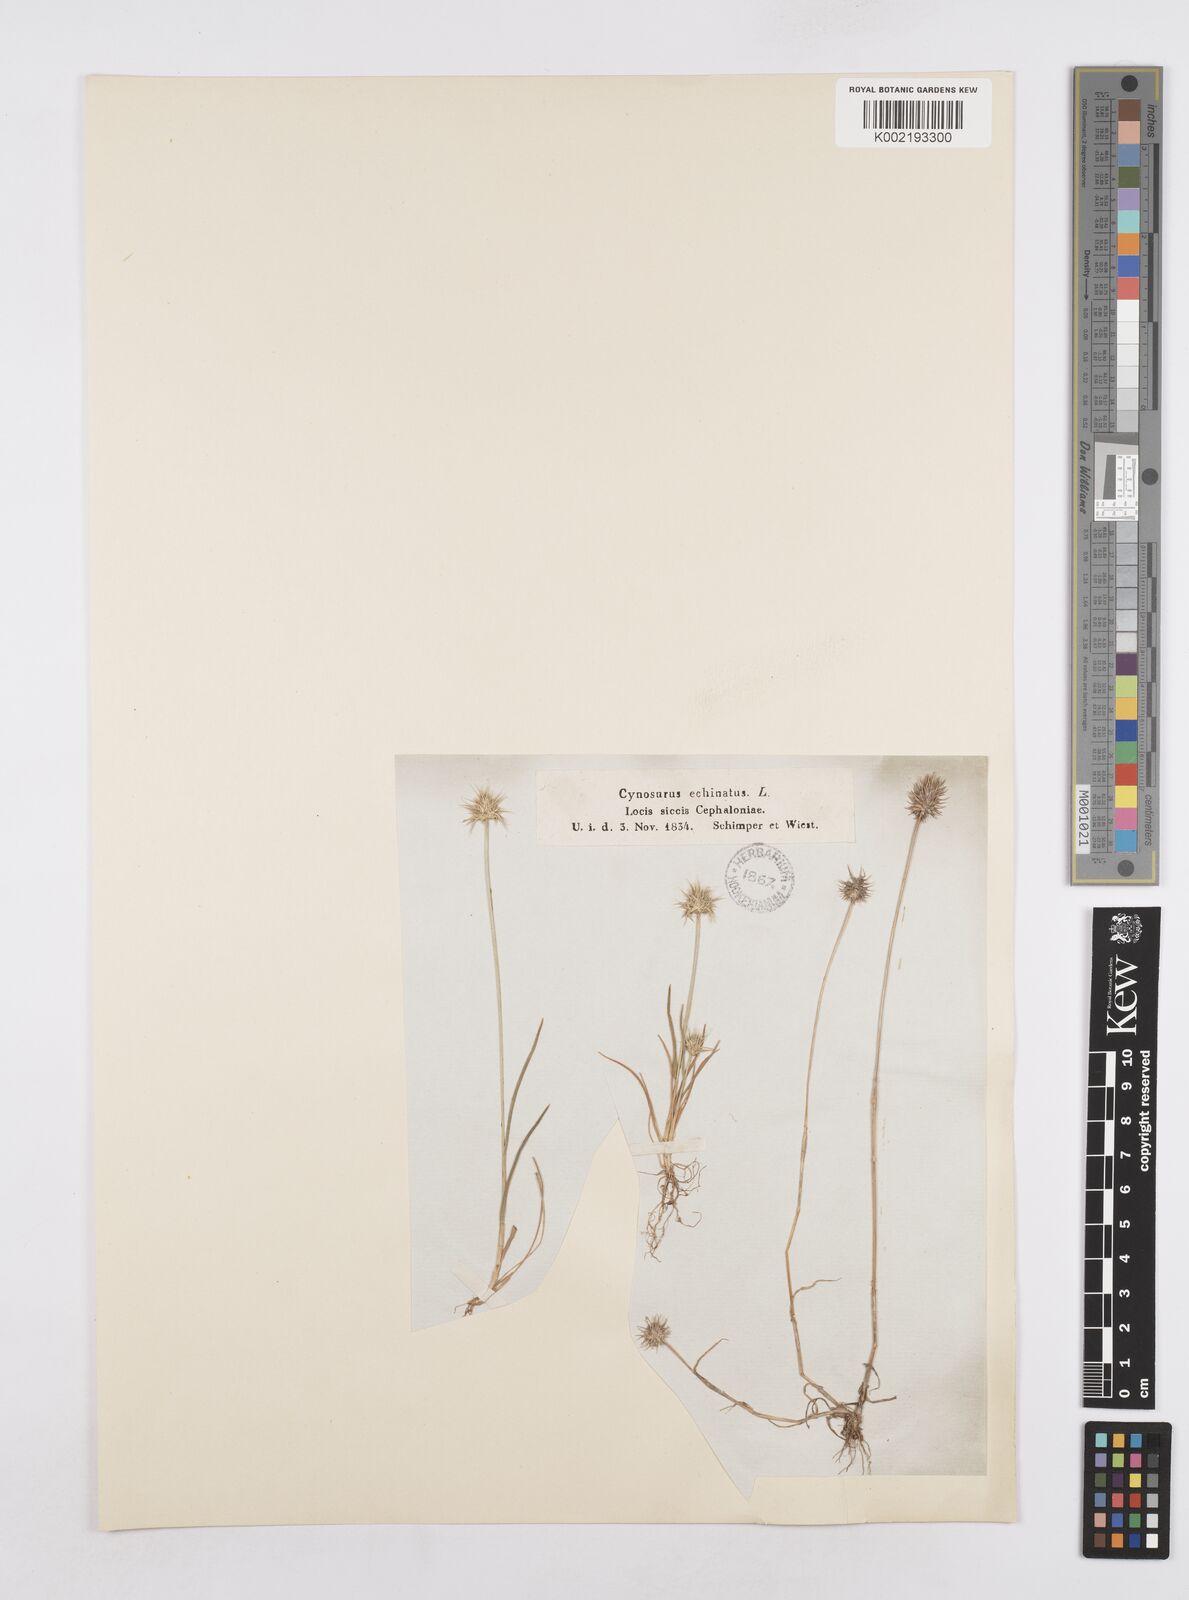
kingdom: Plantae
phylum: Tracheophyta
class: Liliopsida
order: Poales
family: Poaceae
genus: Echinaria
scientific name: Echinaria capitata
